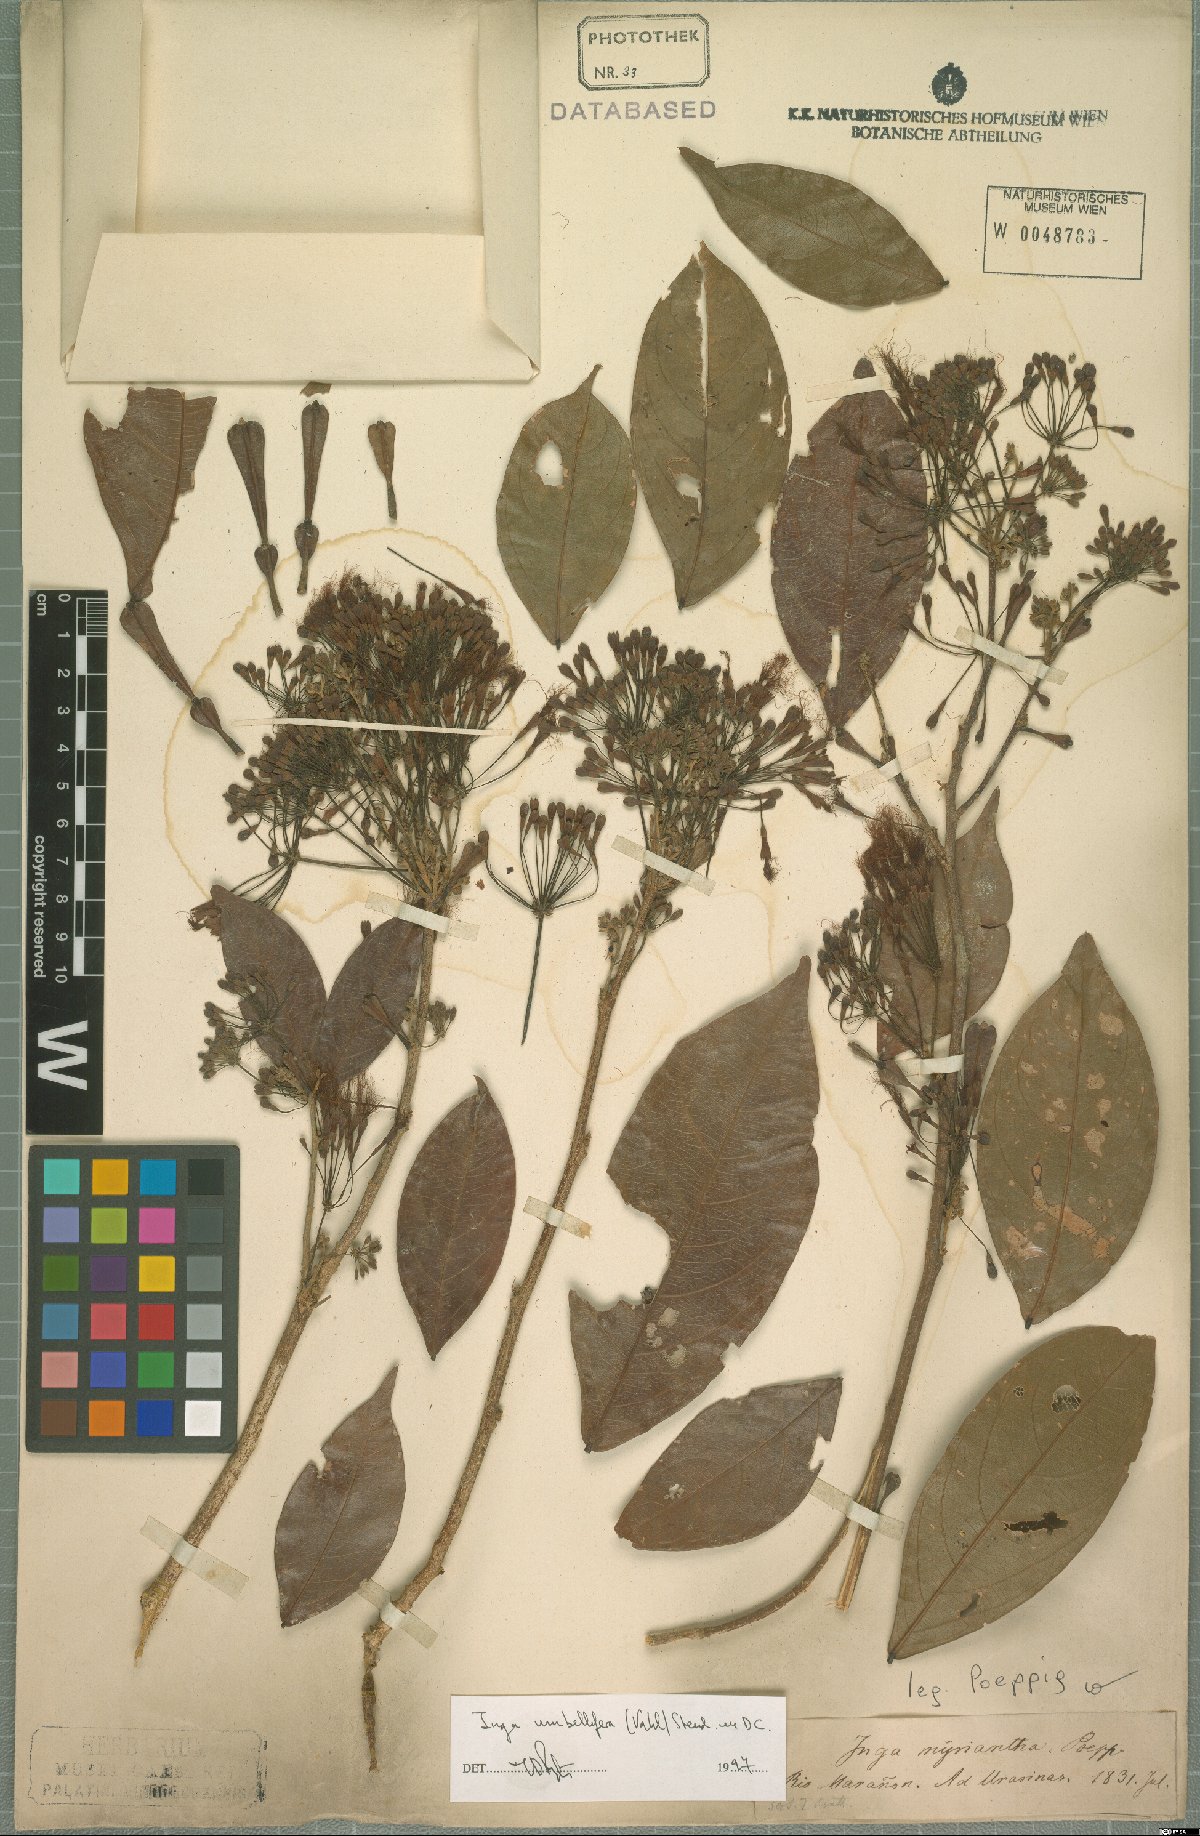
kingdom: Plantae
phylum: Tracheophyta
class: Magnoliopsida
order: Fabales
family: Fabaceae
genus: Inga
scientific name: Inga umbellifera
